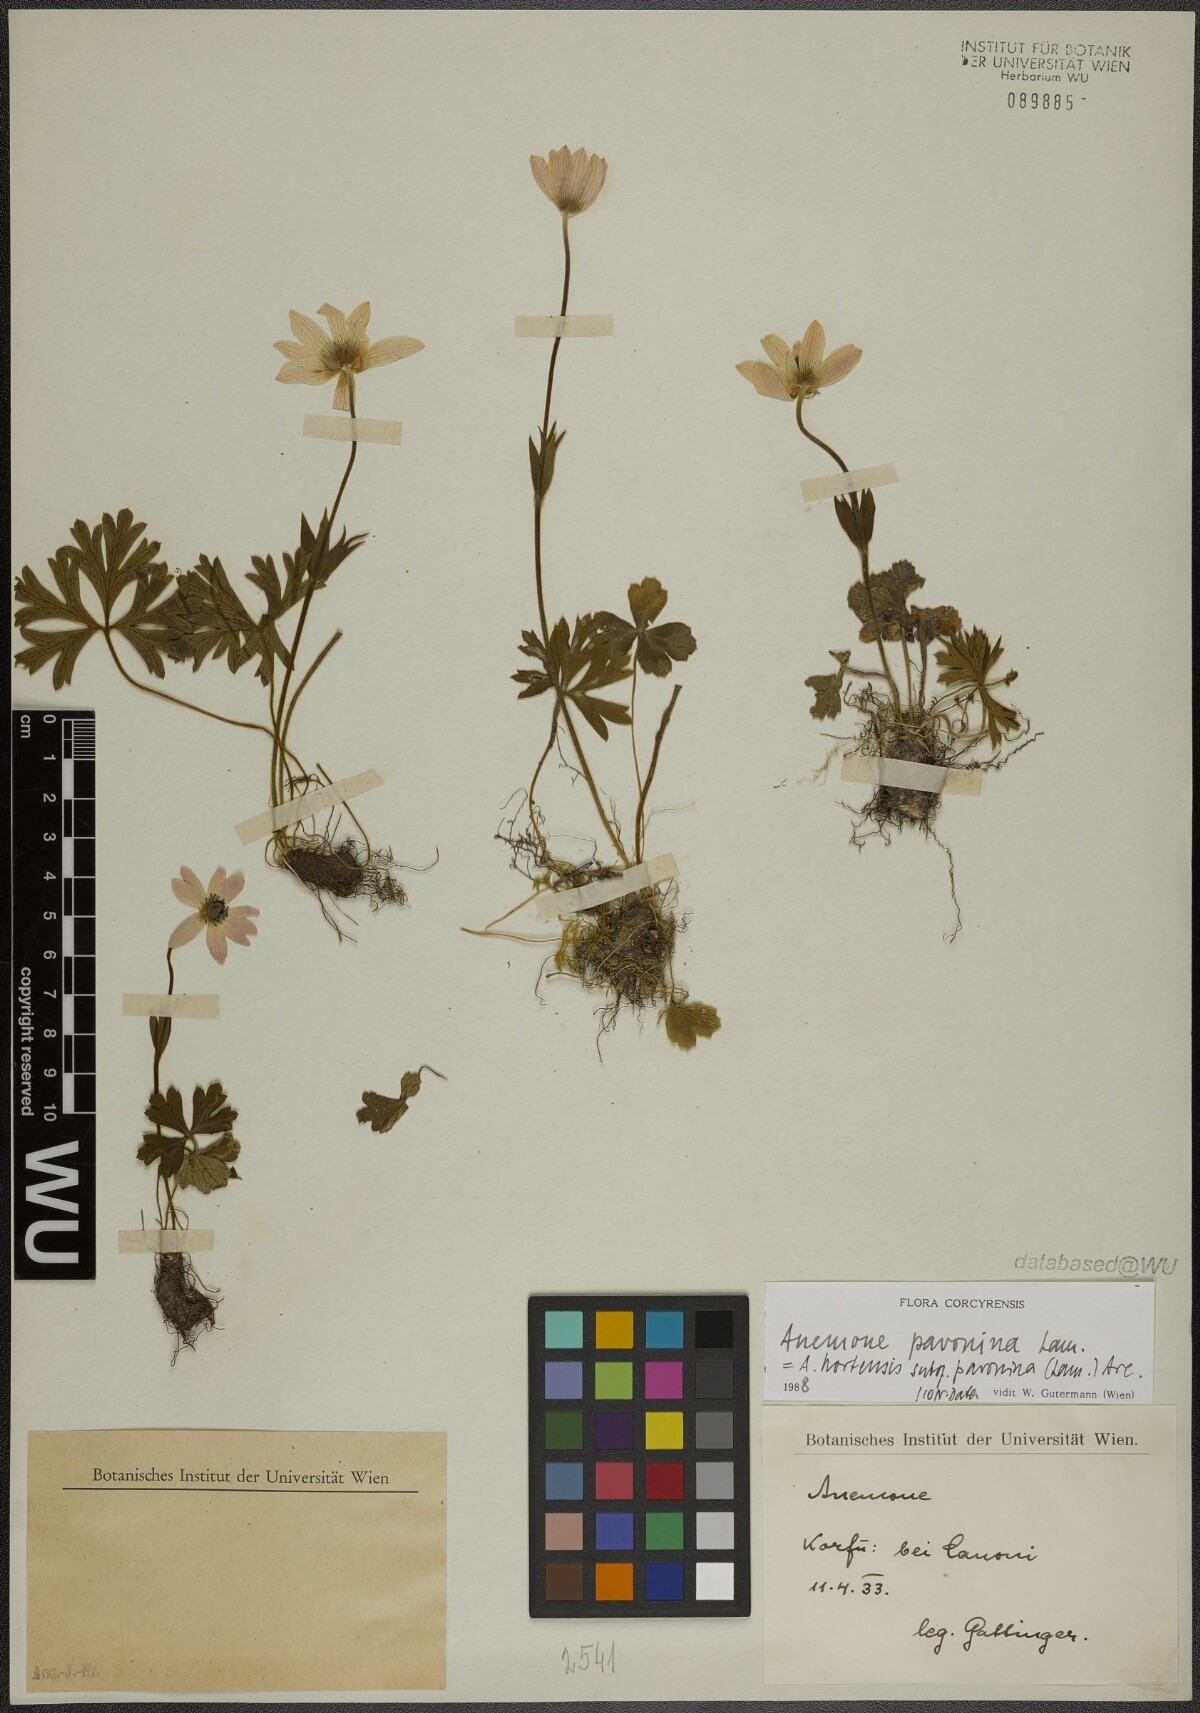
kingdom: Plantae
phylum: Tracheophyta
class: Magnoliopsida
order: Ranunculales
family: Ranunculaceae
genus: Anemone
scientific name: Anemone pavonina
